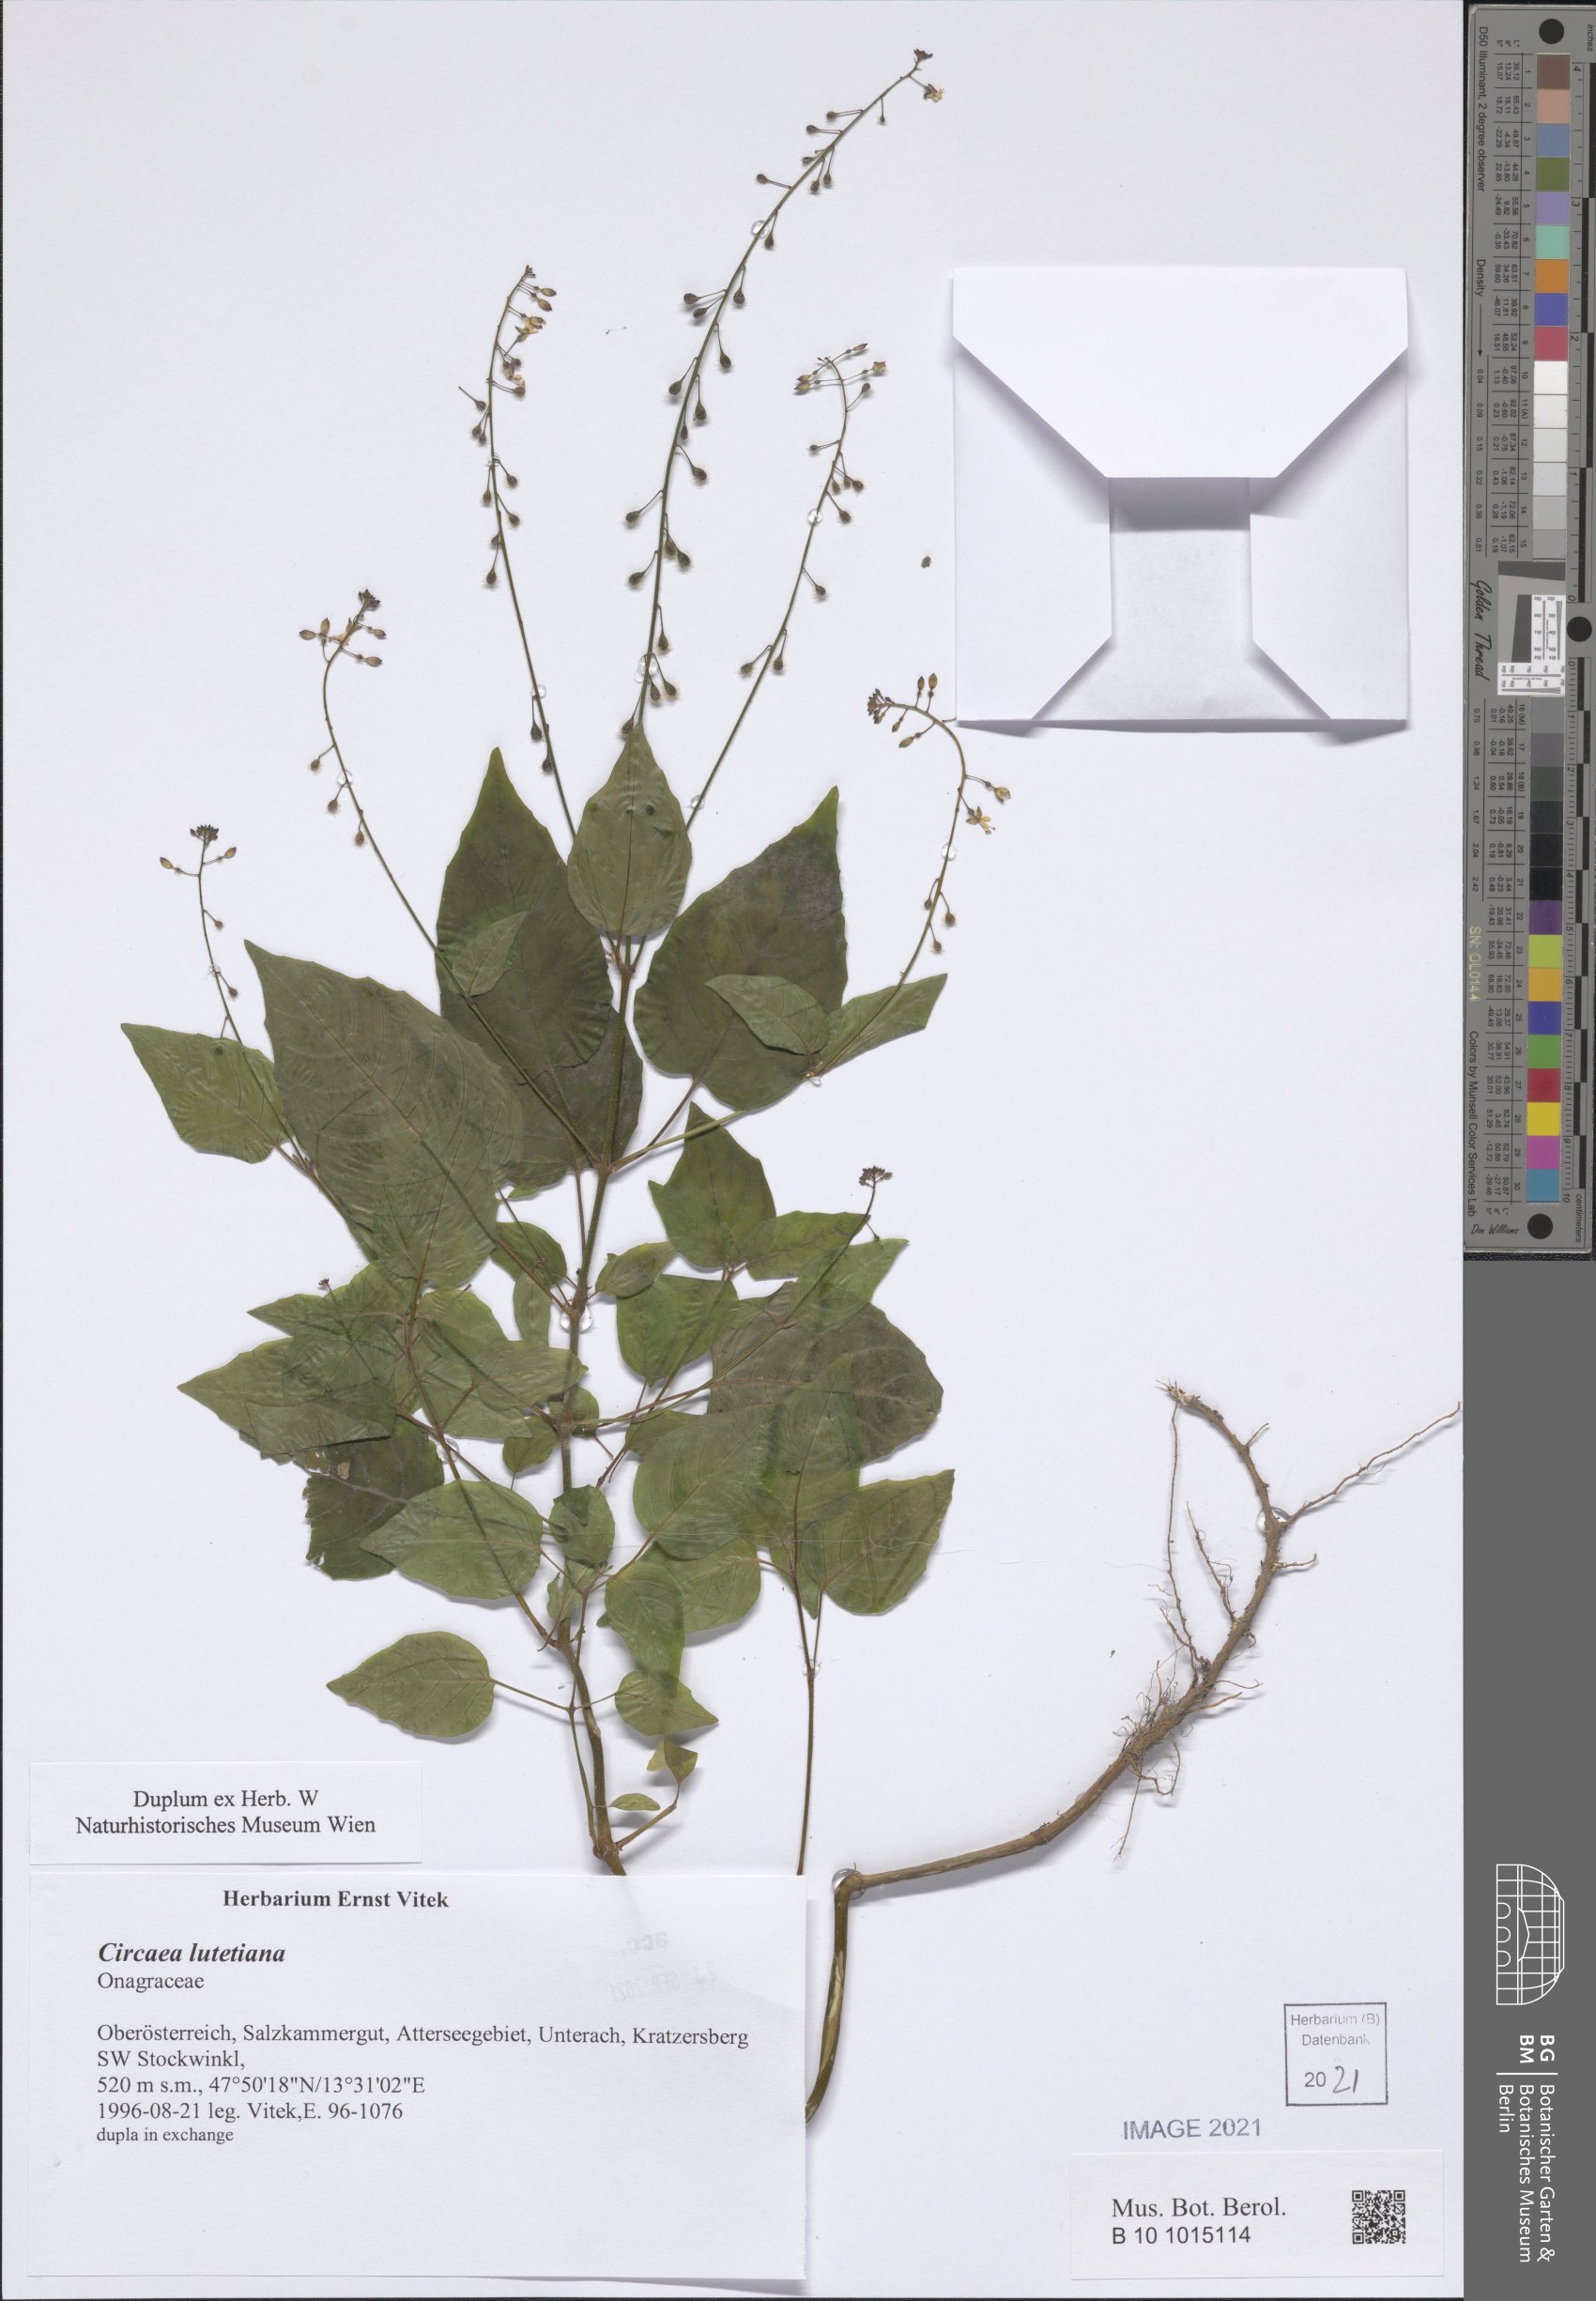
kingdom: Plantae
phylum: Tracheophyta
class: Magnoliopsida
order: Myrtales
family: Onagraceae
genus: Circaea
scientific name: Circaea lutetiana
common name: Enchanter's-nightshade
